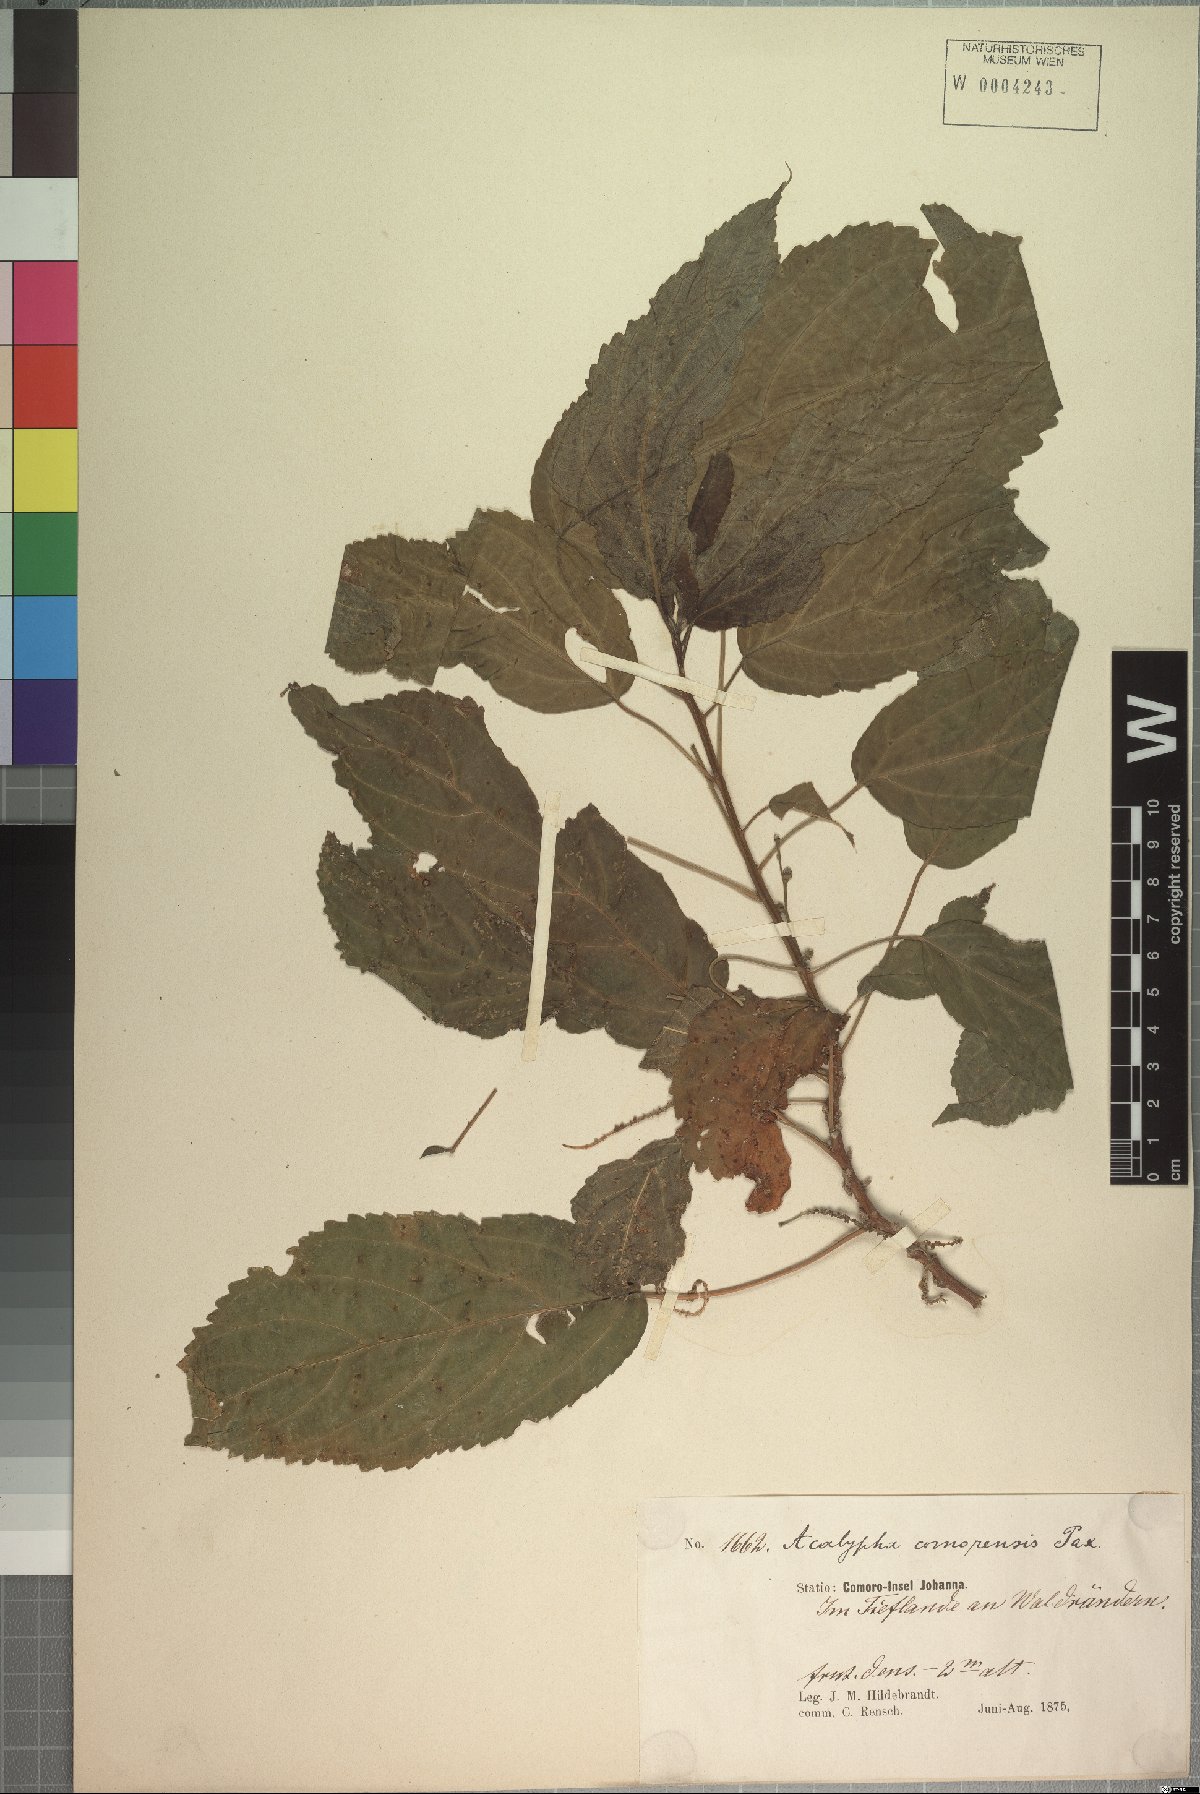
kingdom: Plantae
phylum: Tracheophyta
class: Magnoliopsida
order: Malpighiales
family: Euphorbiaceae
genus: Acalypha
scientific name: Acalypha chibomboa
